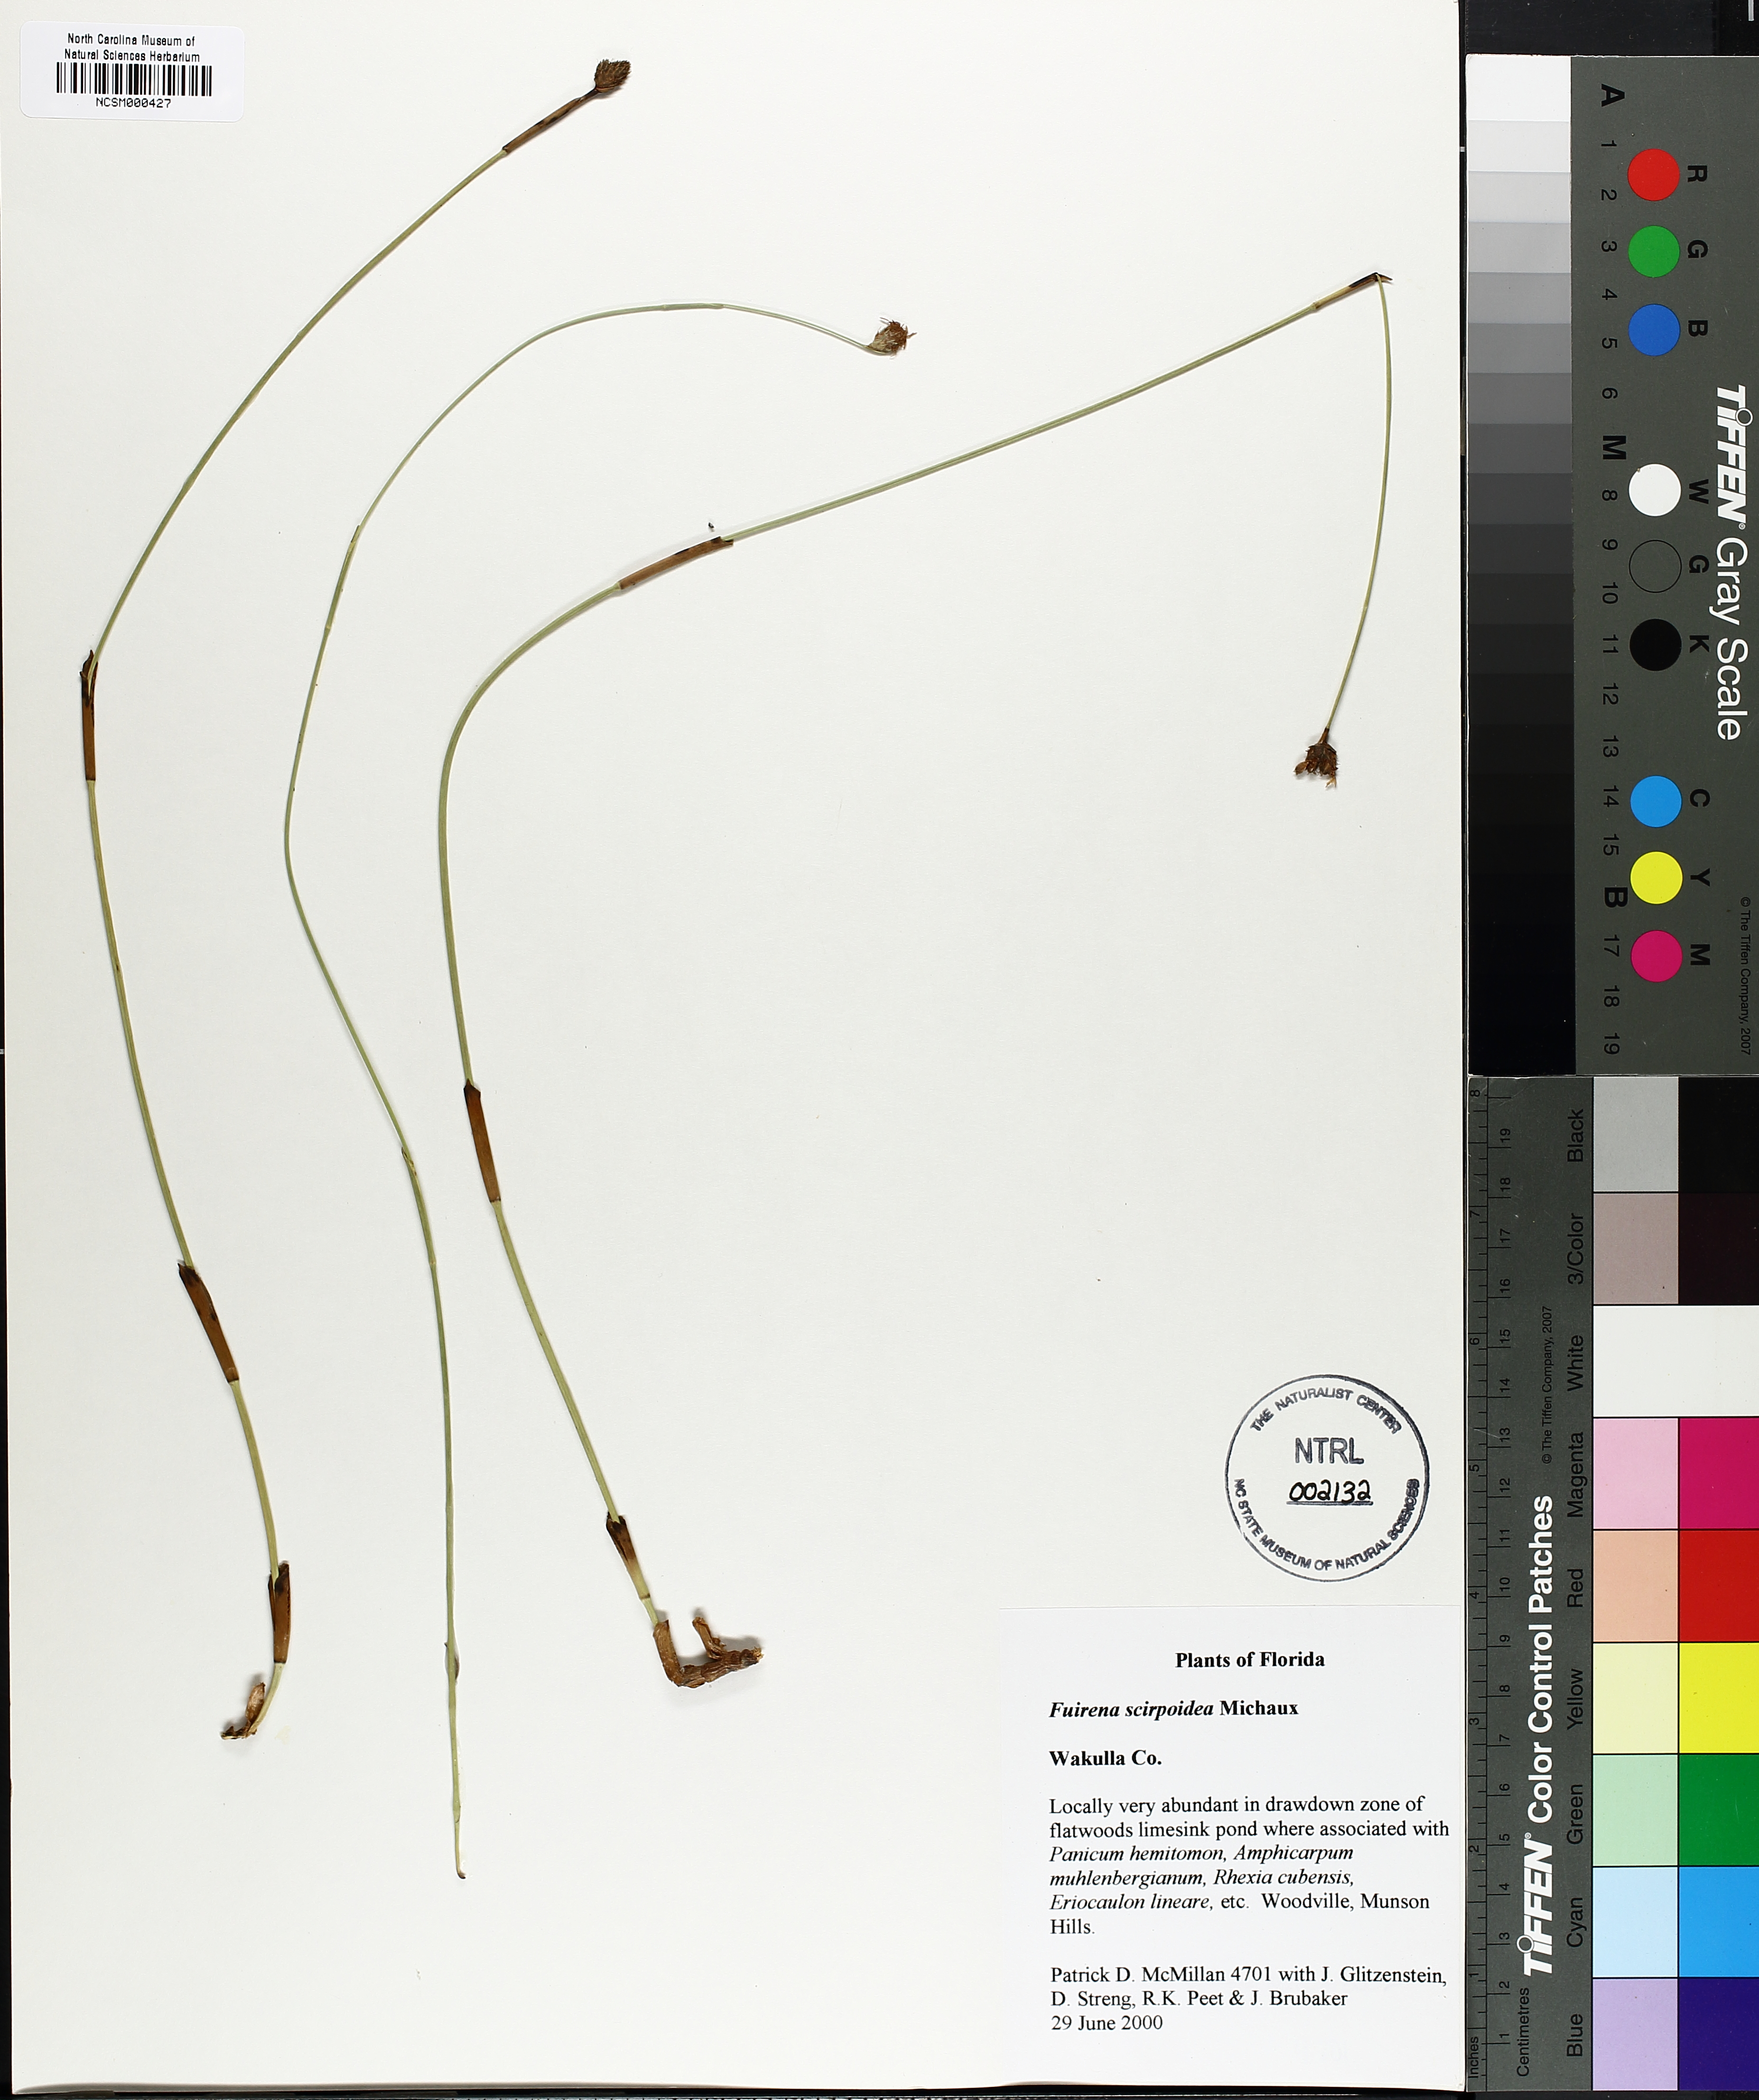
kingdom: Plantae
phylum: Tracheophyta
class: Liliopsida
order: Poales
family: Cyperaceae
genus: Fuirena
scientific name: Fuirena scirpoidea
